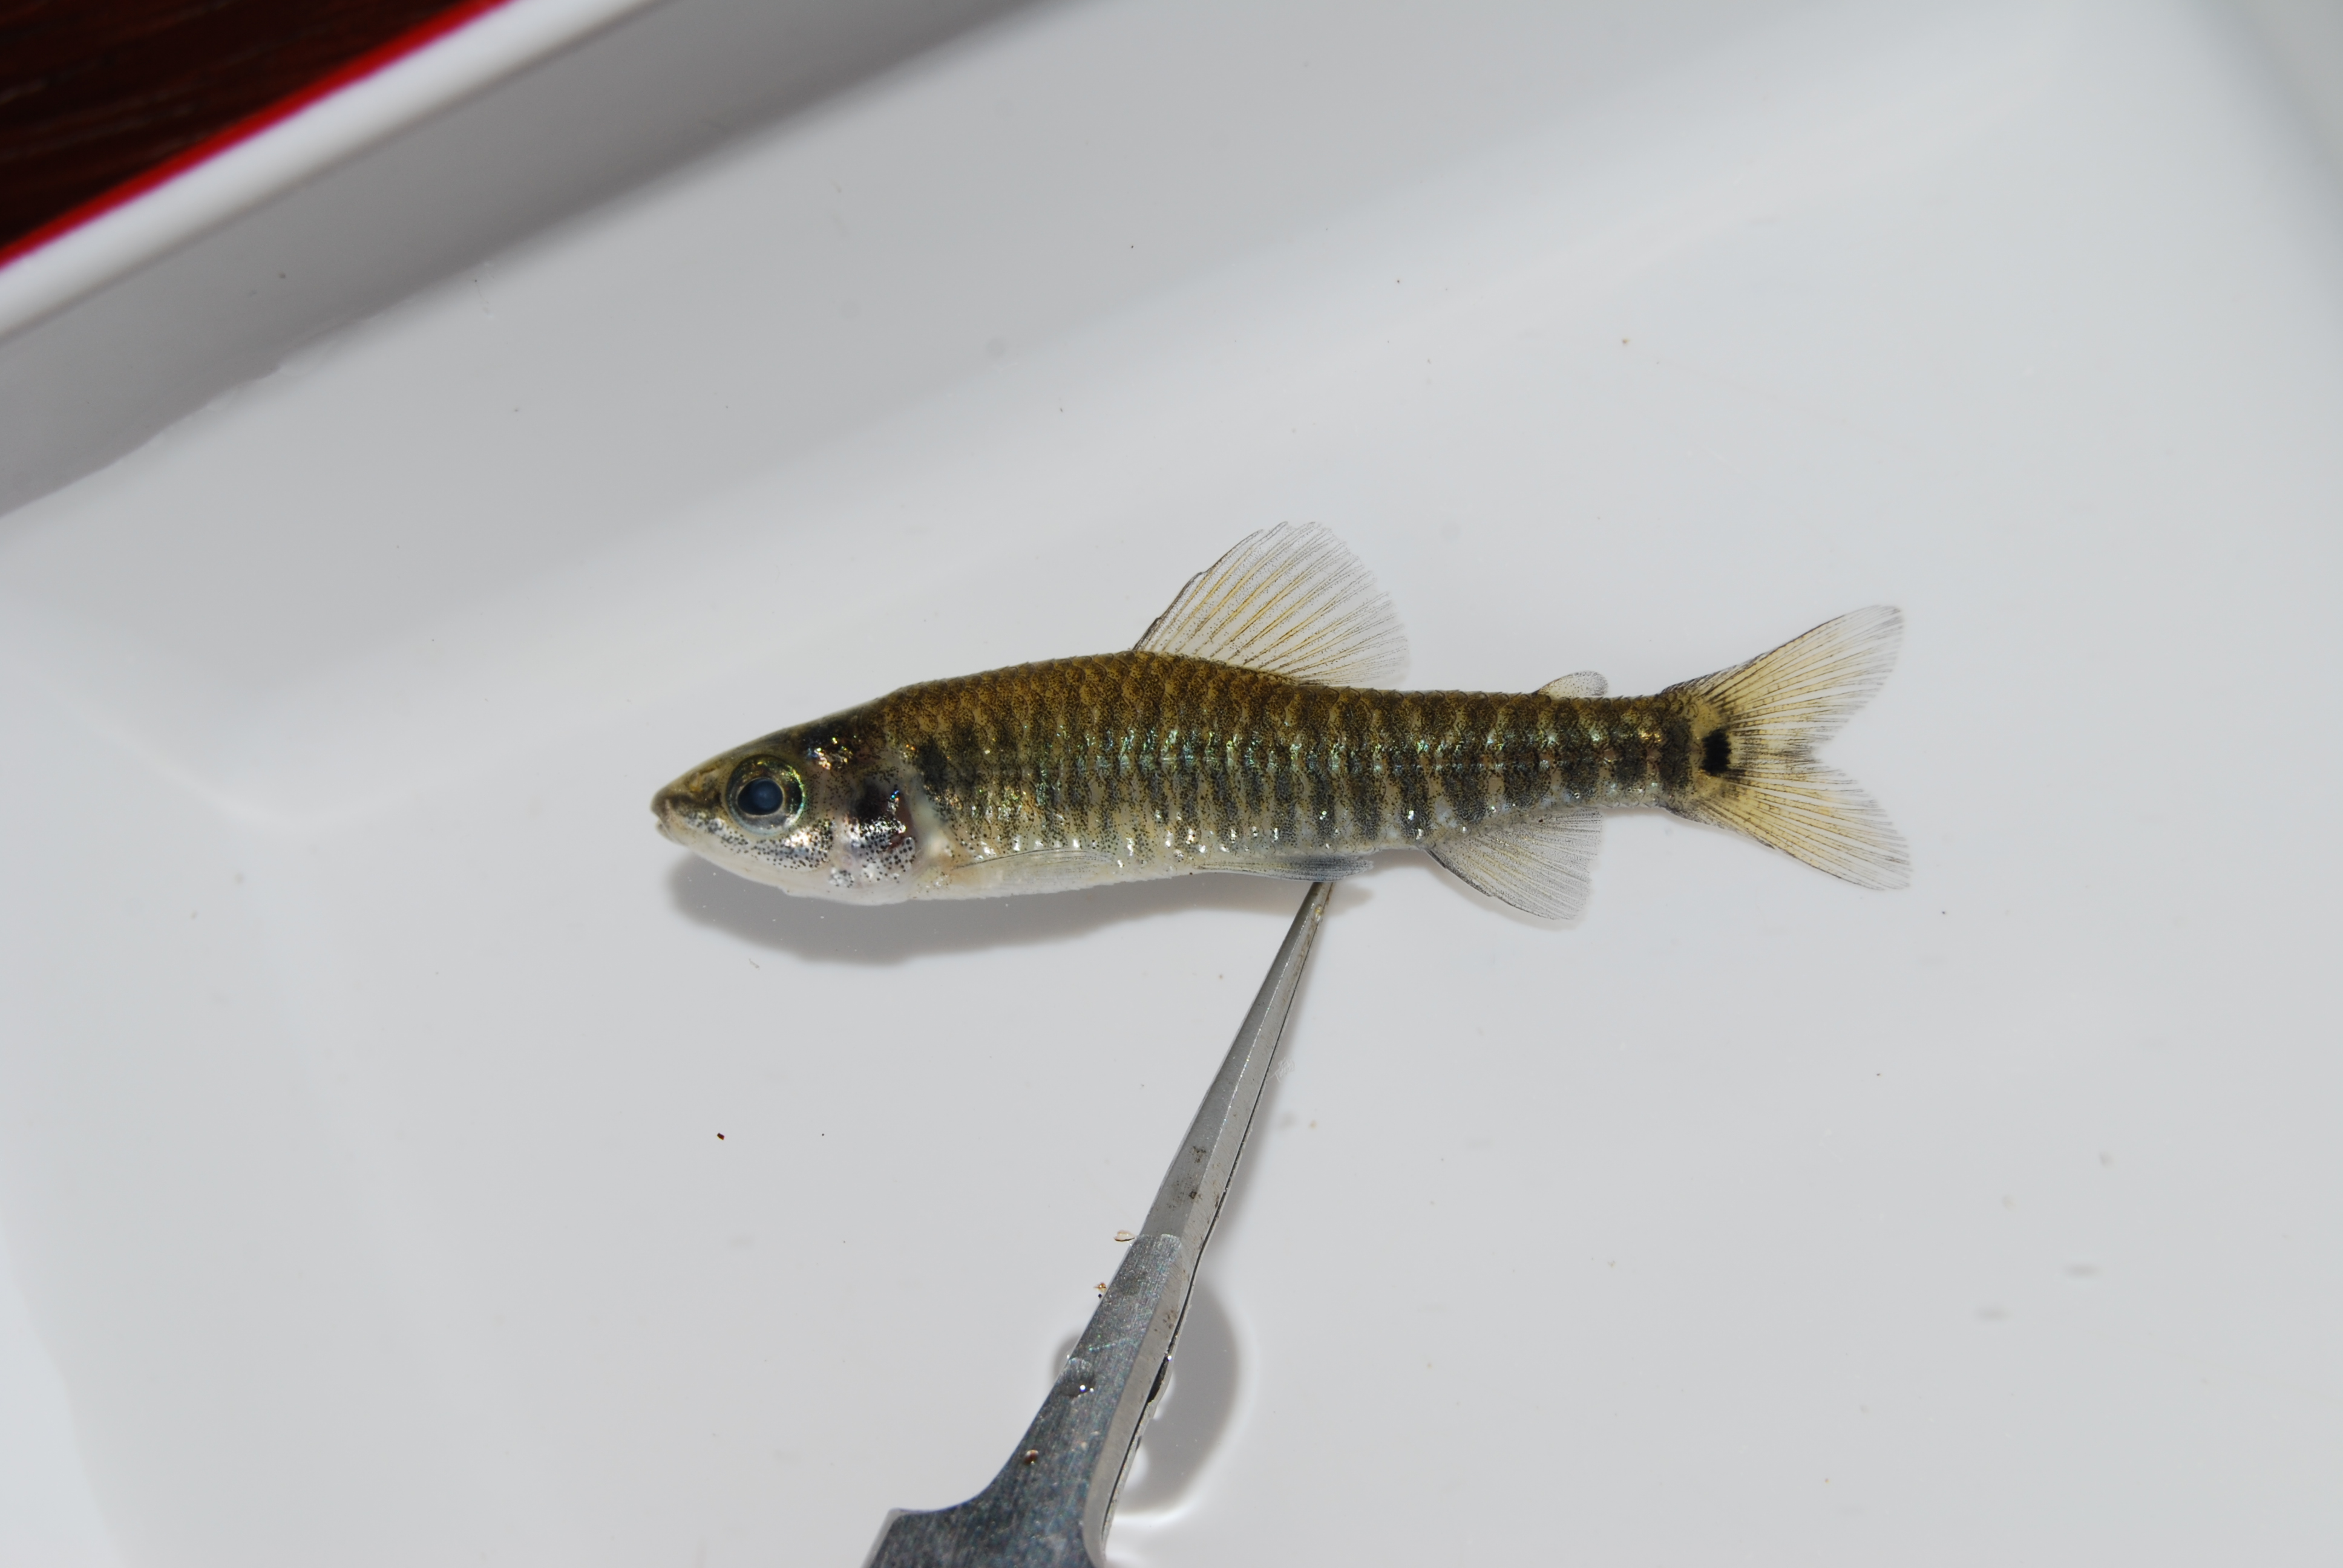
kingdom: Animalia
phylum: Chordata
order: Characiformes
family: Distichodontidae
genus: Nannocharax
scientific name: Nannocharax multifasciatus
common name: Multibar citharine
